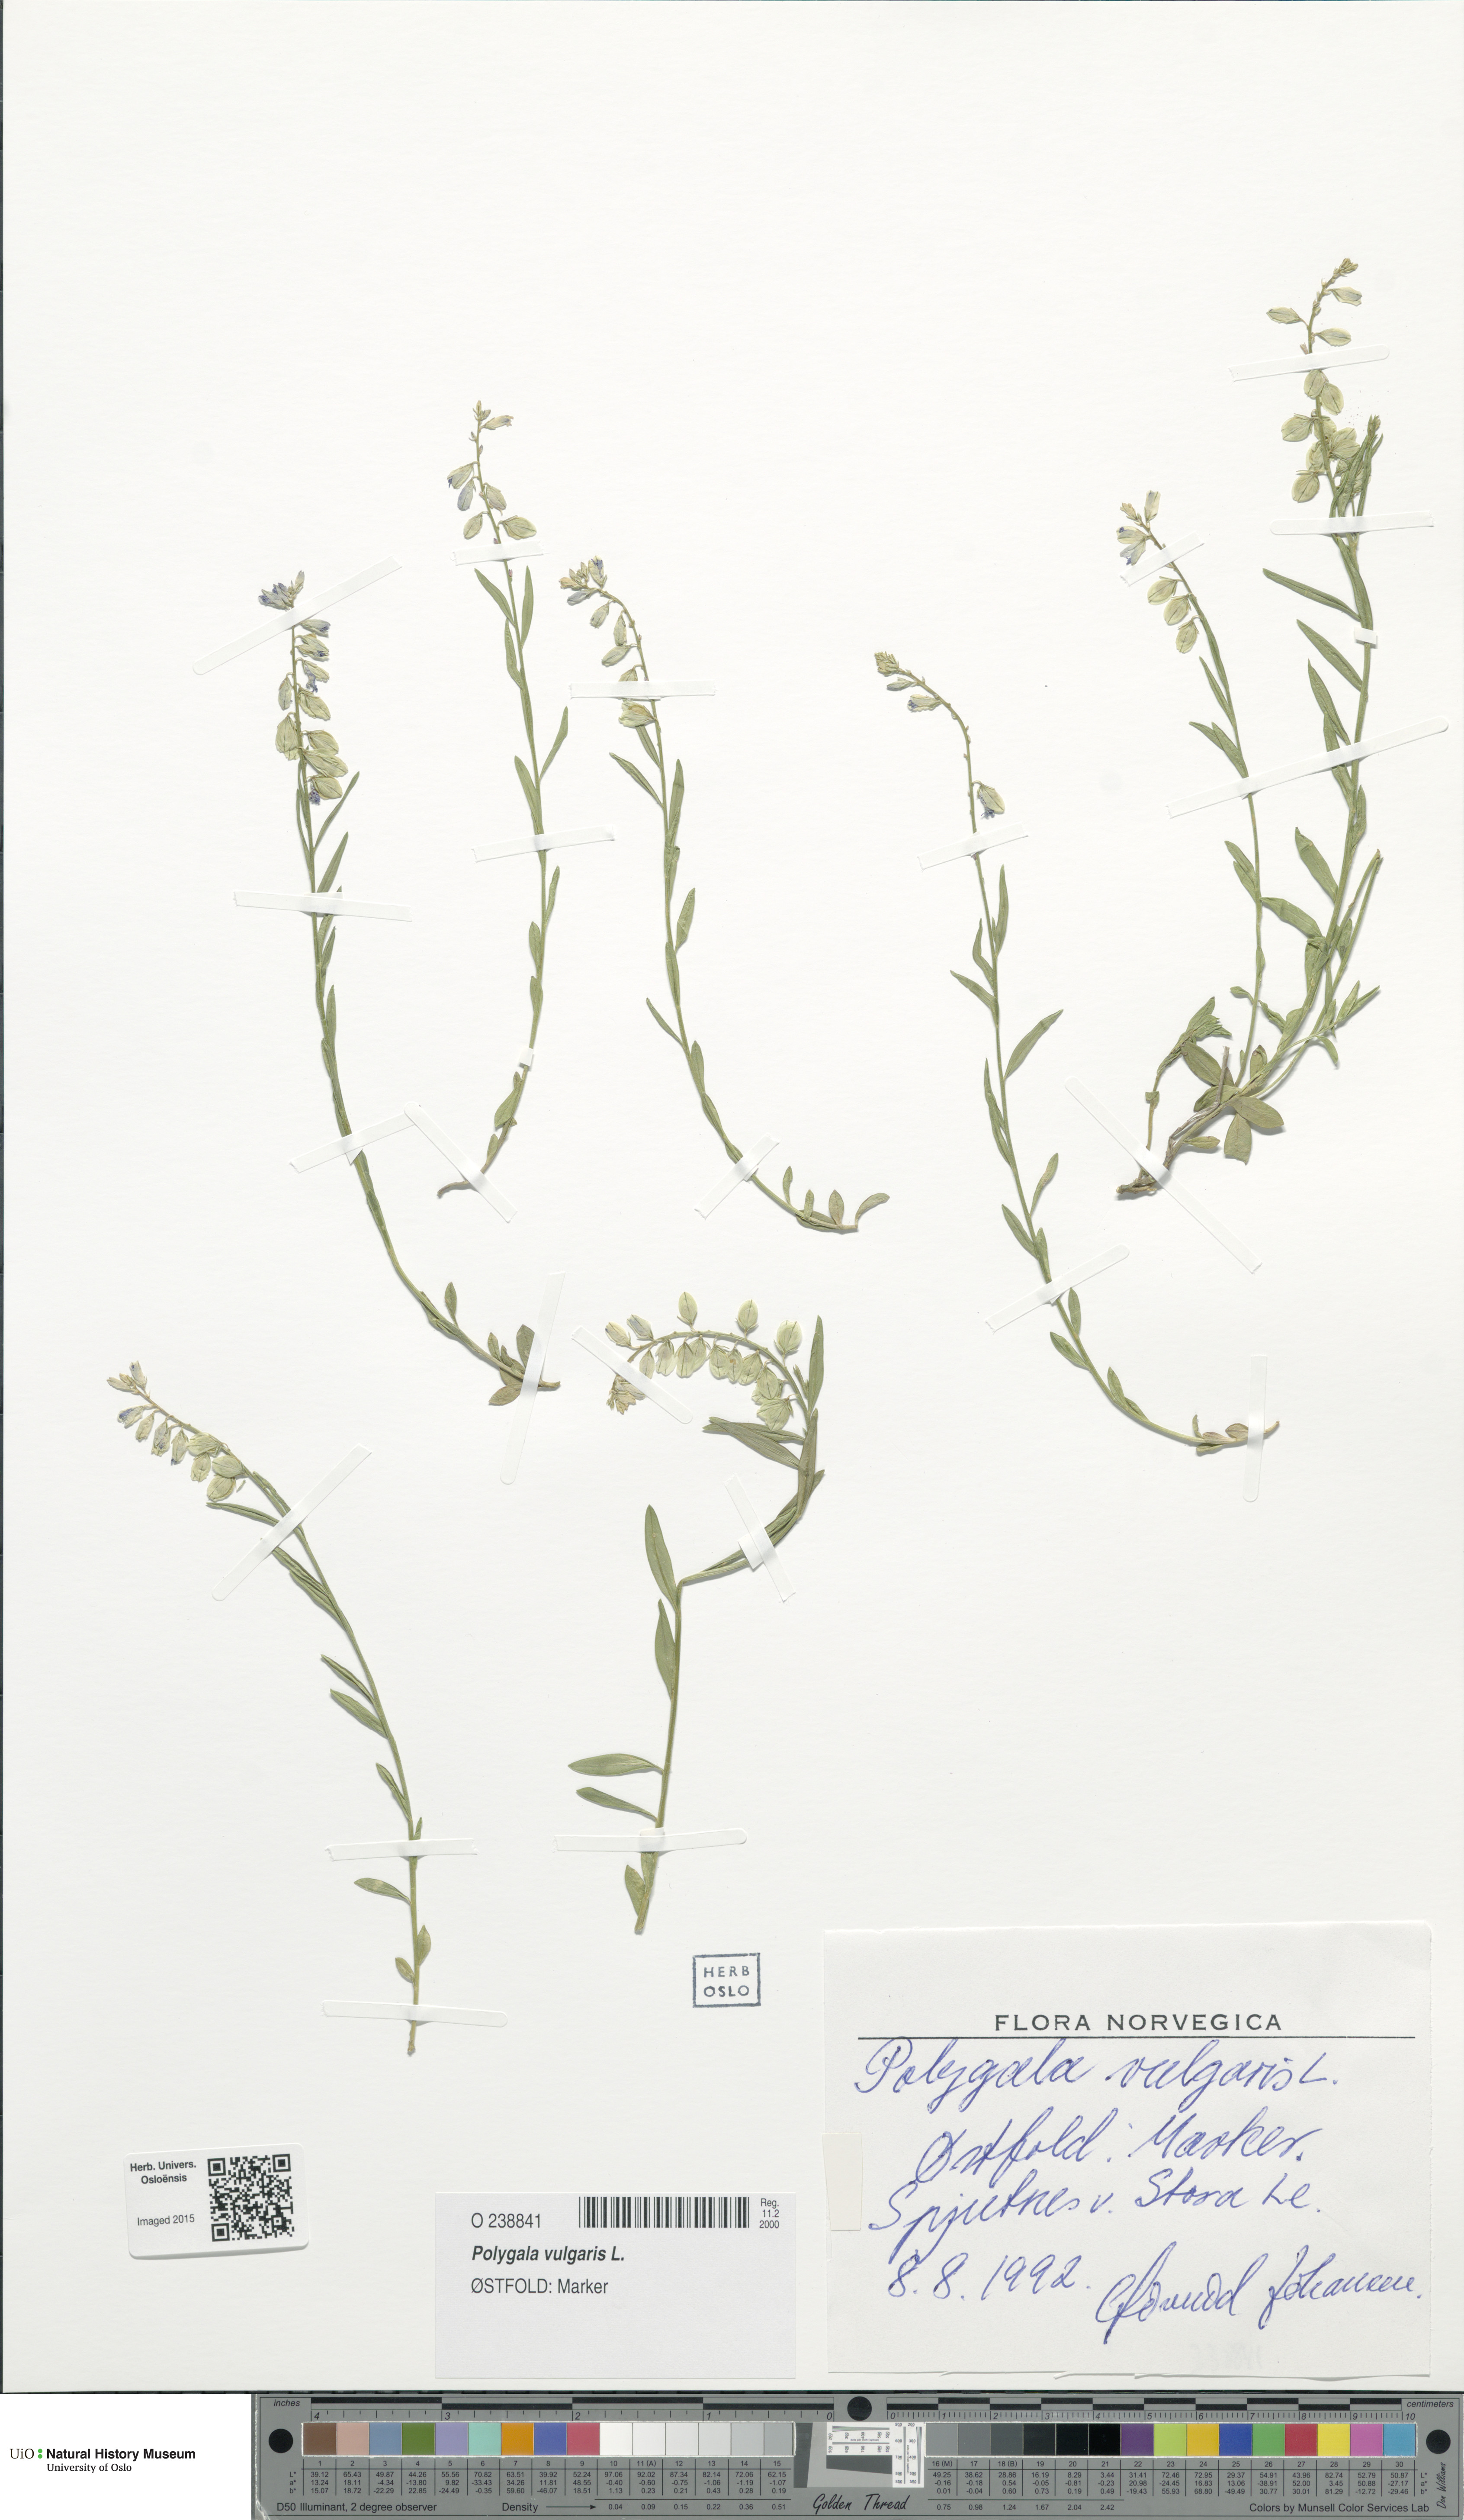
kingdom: Plantae
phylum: Tracheophyta
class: Magnoliopsida
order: Fabales
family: Polygalaceae
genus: Polygala
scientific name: Polygala vulgaris
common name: Common milkwort
